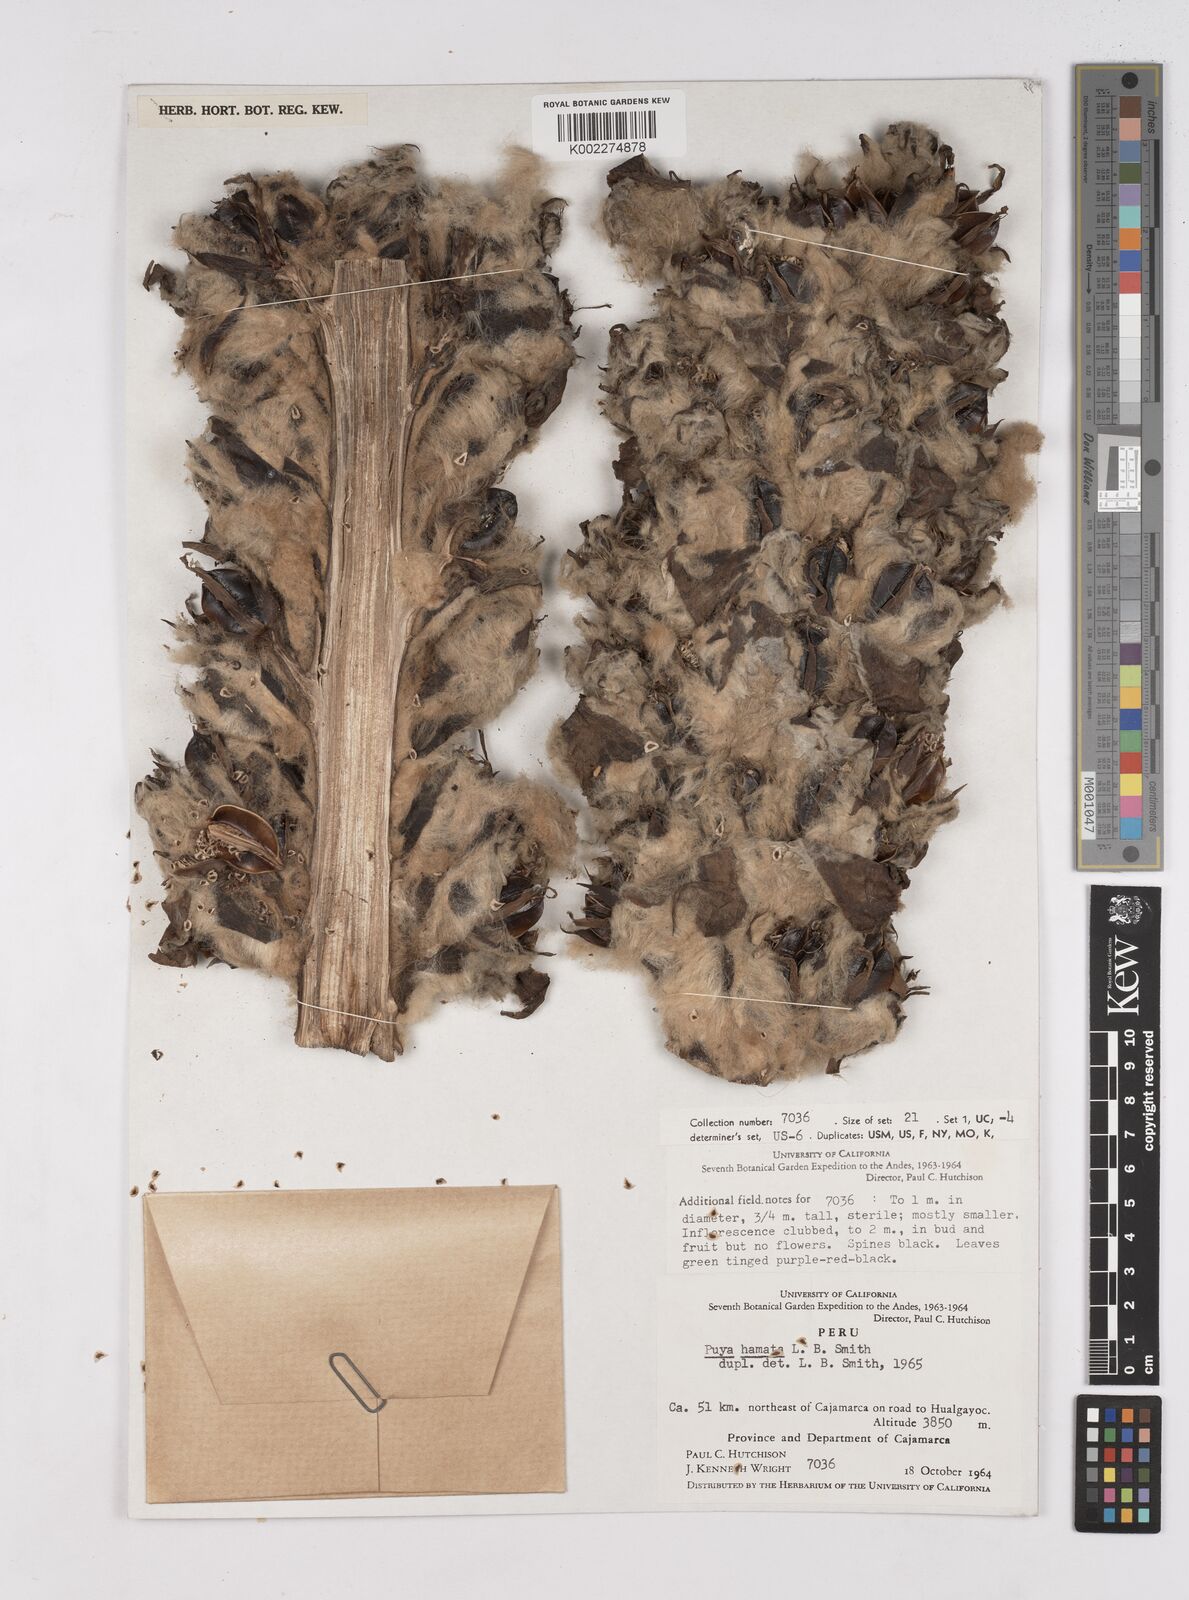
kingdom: Plantae
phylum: Tracheophyta
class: Liliopsida
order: Poales
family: Bromeliaceae
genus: Puya
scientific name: Puya hamata
